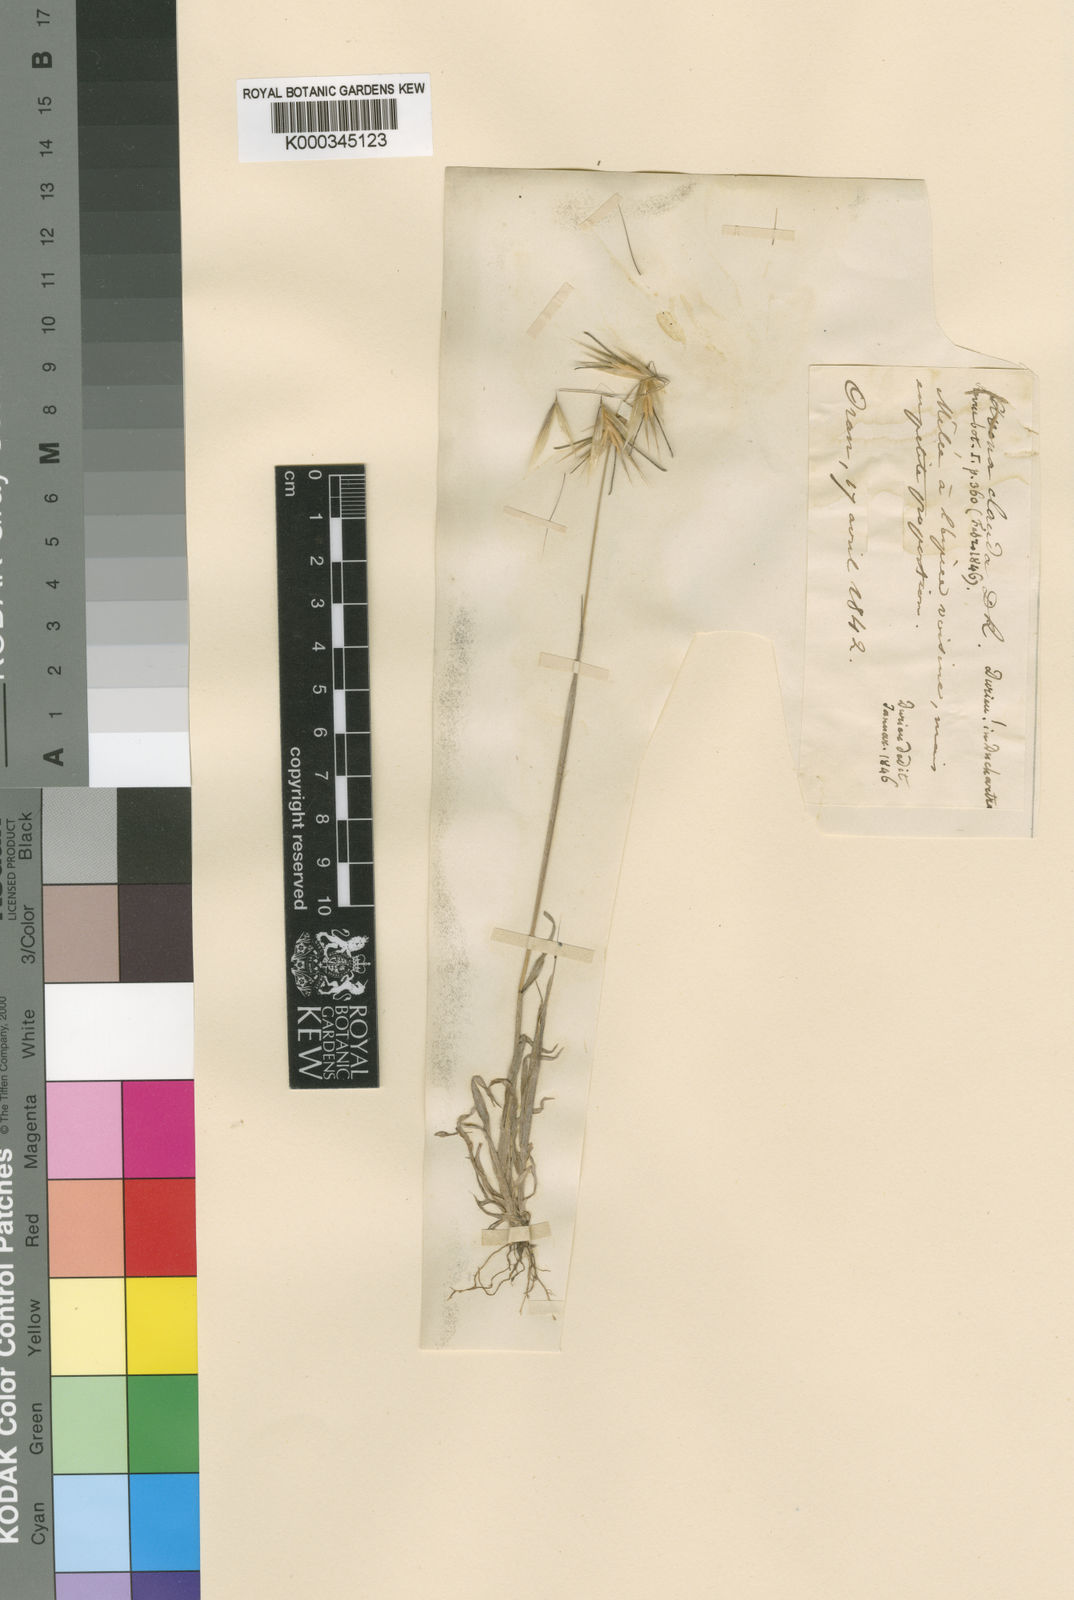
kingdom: Plantae
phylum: Tracheophyta
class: Liliopsida
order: Poales
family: Poaceae
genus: Avena
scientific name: Avena clauda
